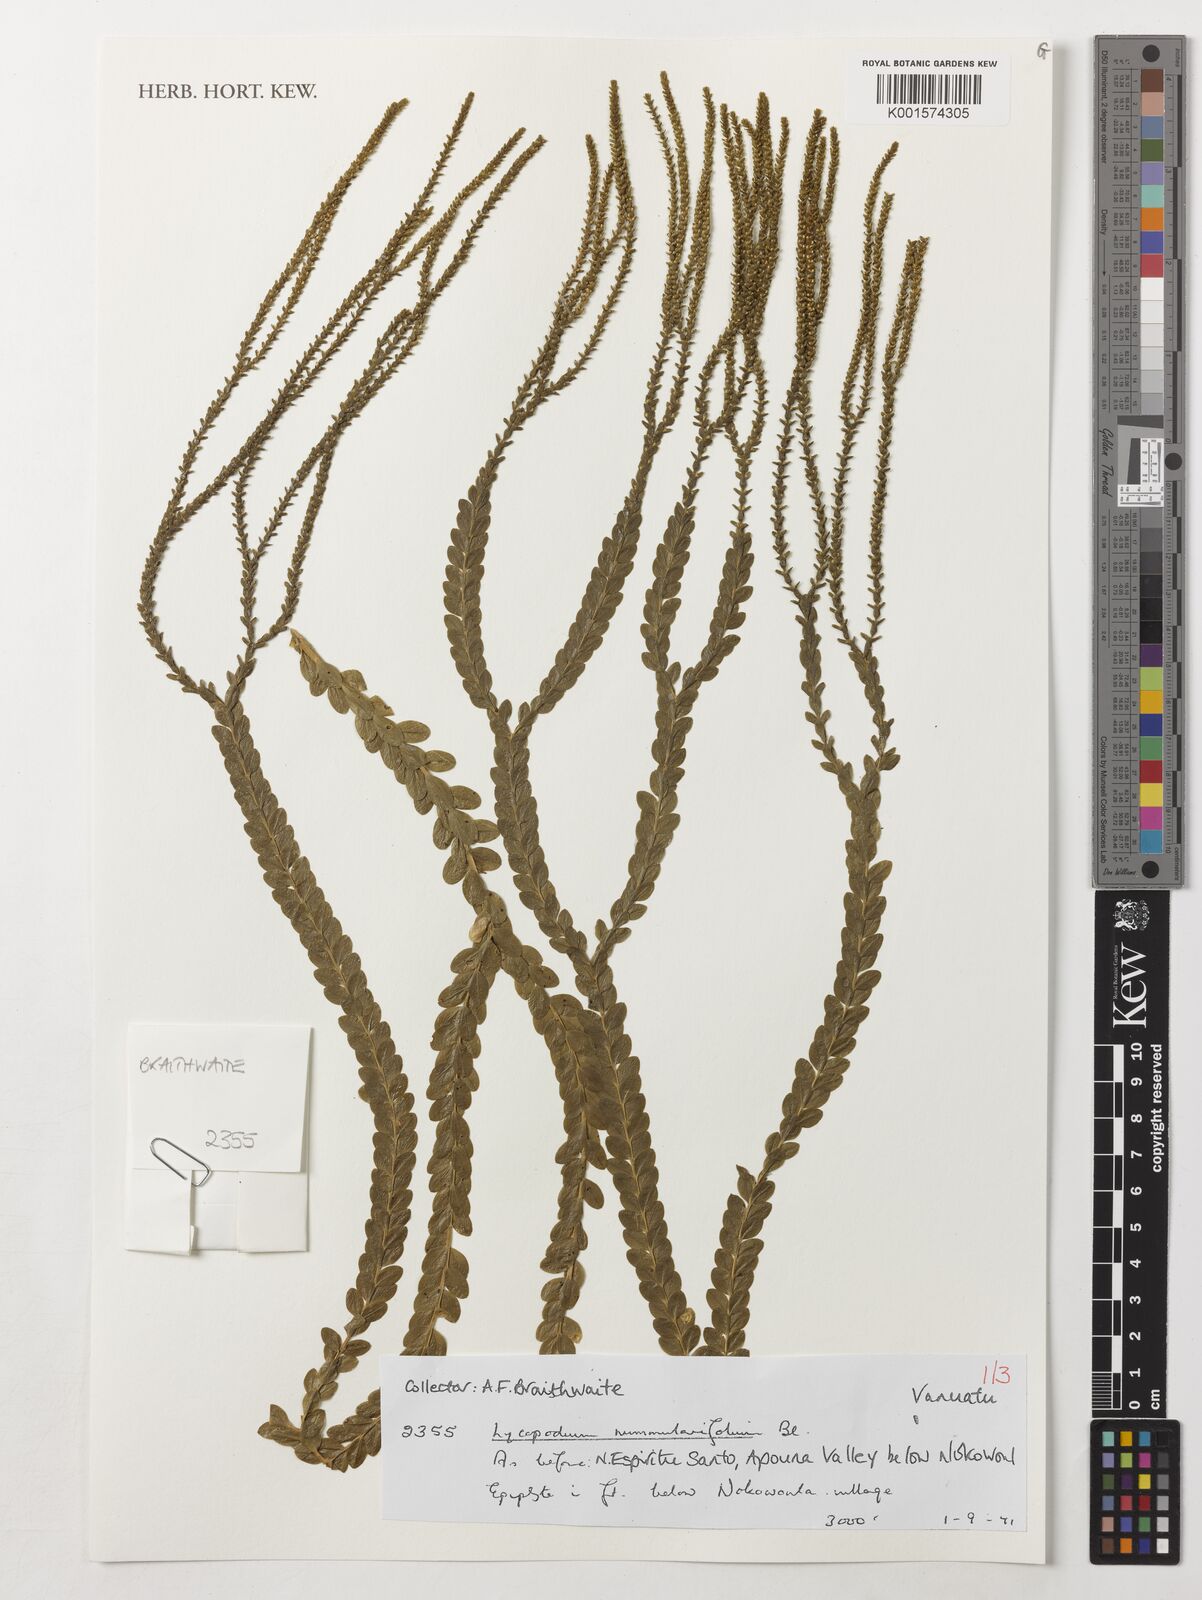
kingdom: Plantae
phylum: Tracheophyta
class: Lycopodiopsida
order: Lycopodiales
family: Lycopodiaceae
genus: Phlegmariurus
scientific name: Phlegmariurus nummulariifolius
